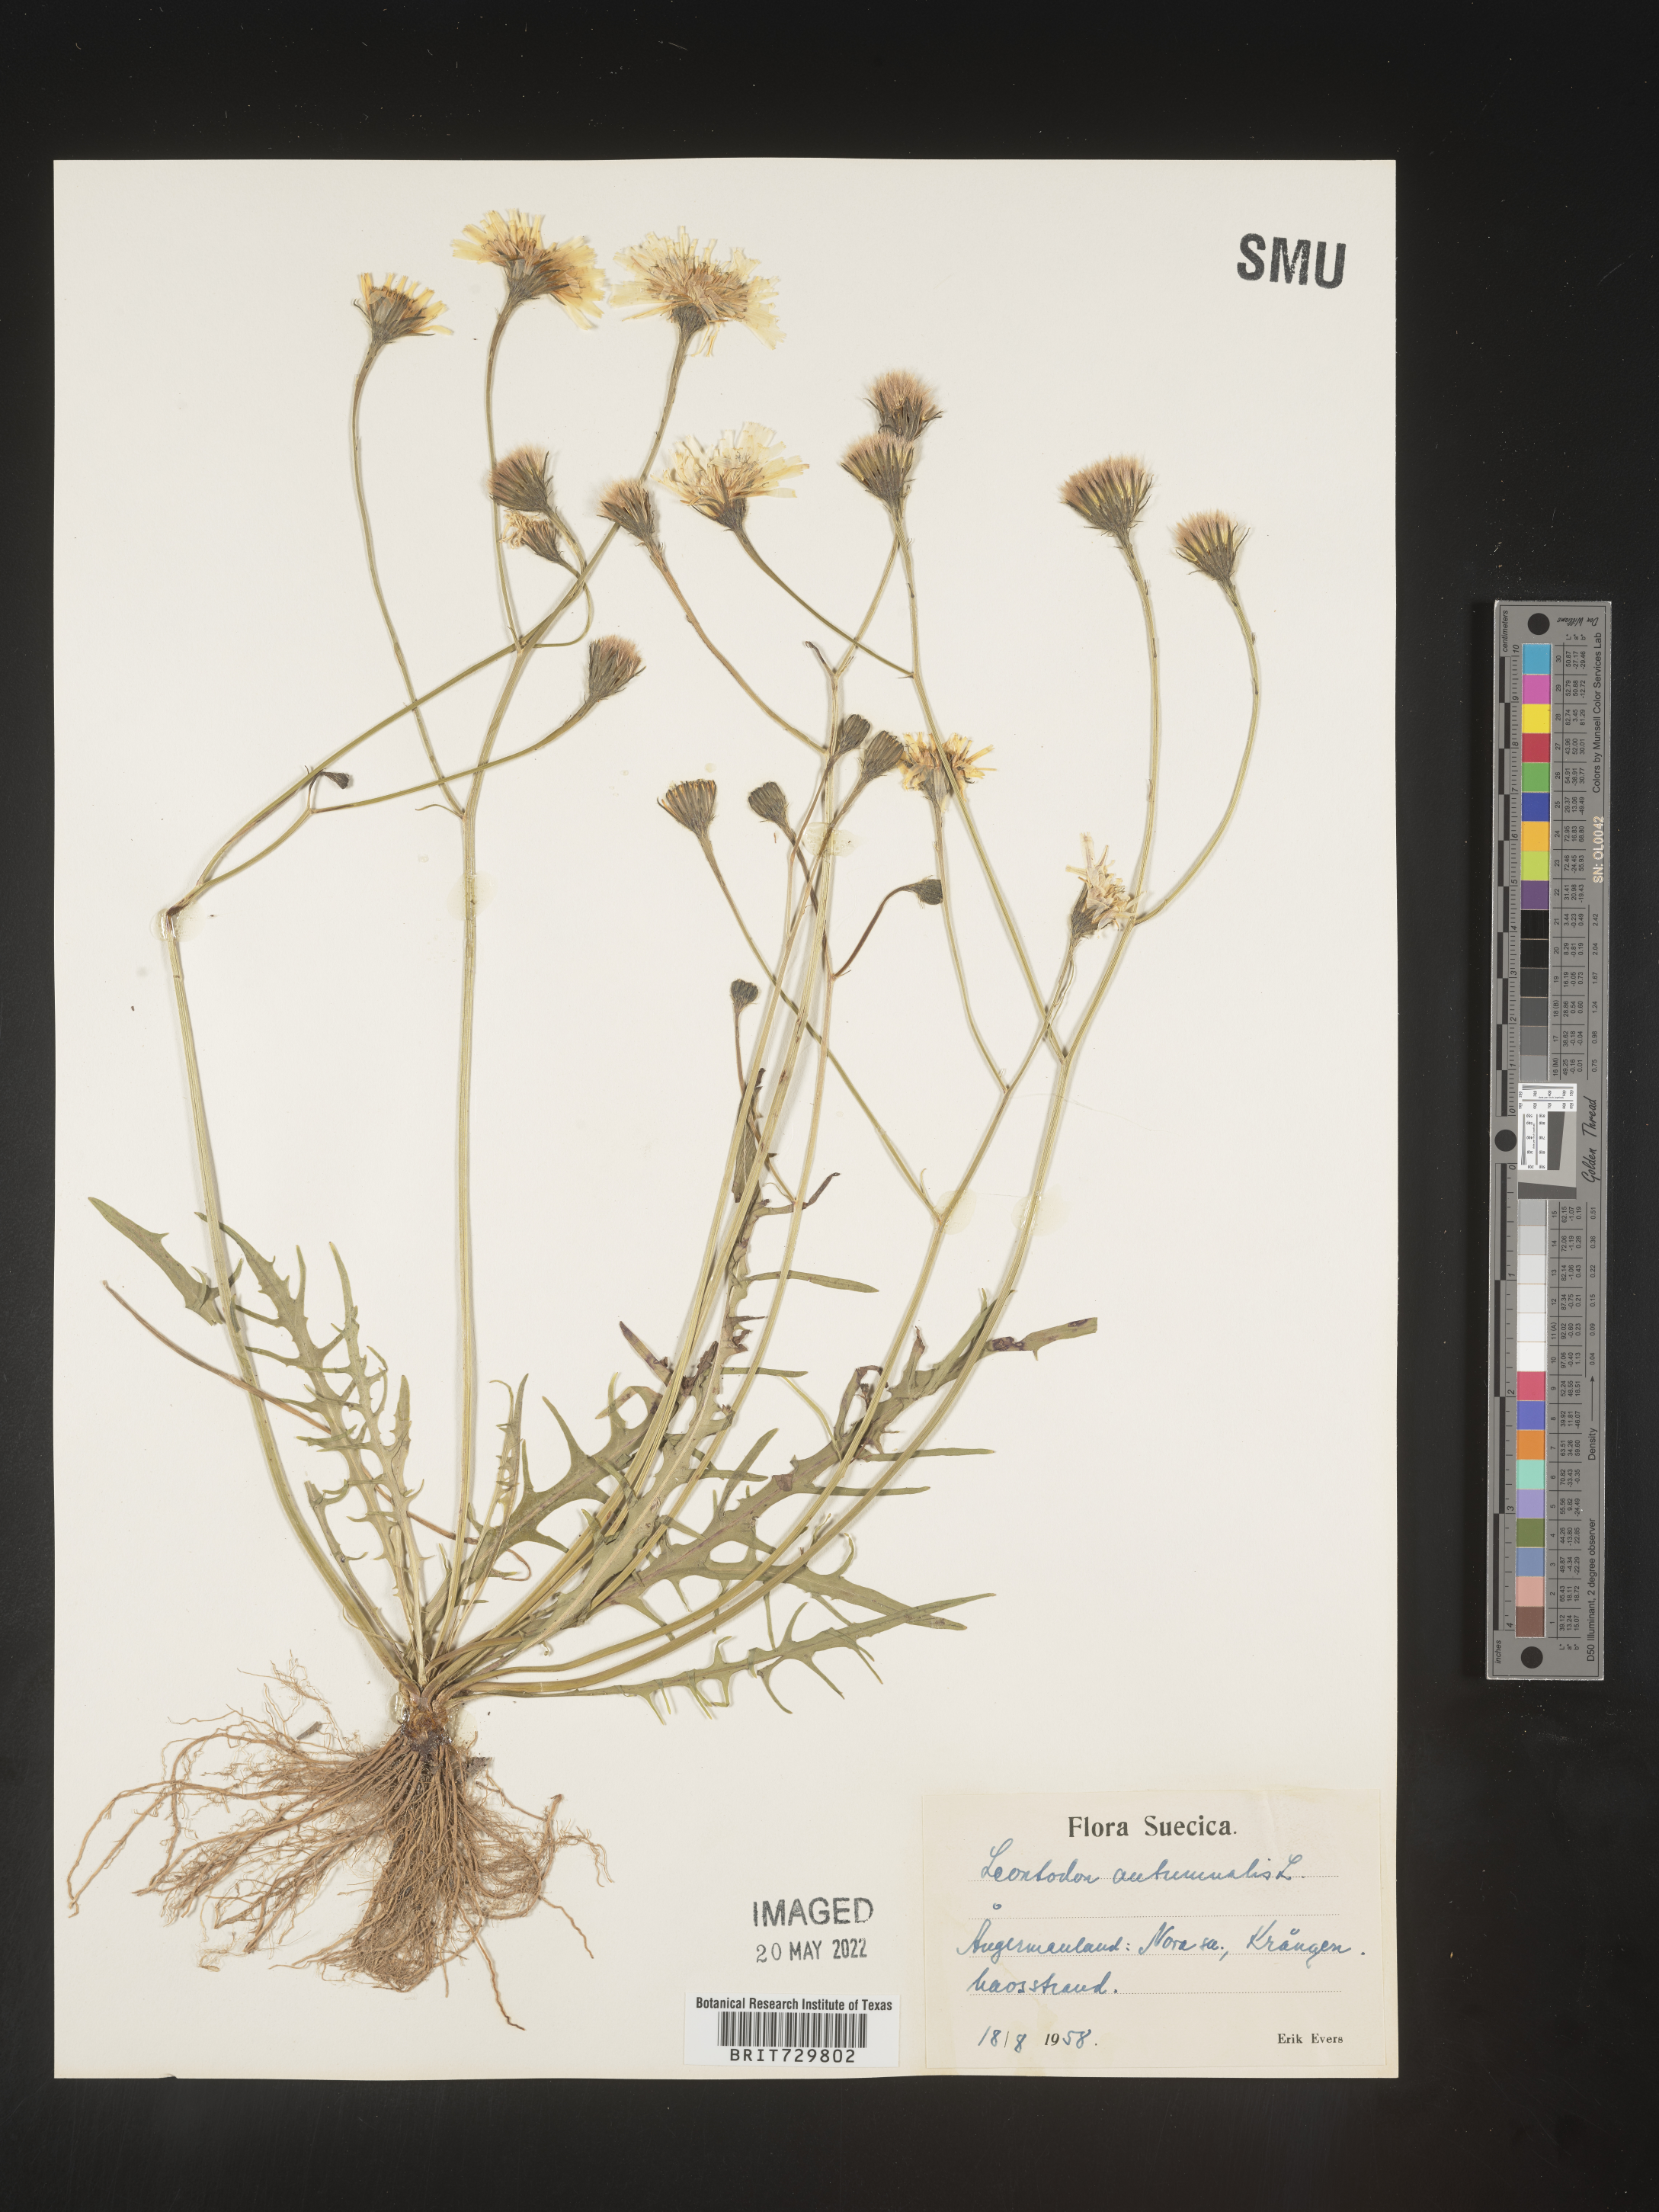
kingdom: Plantae
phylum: Tracheophyta
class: Magnoliopsida
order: Asterales
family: Asteraceae
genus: Leontodon
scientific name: Leontodon
